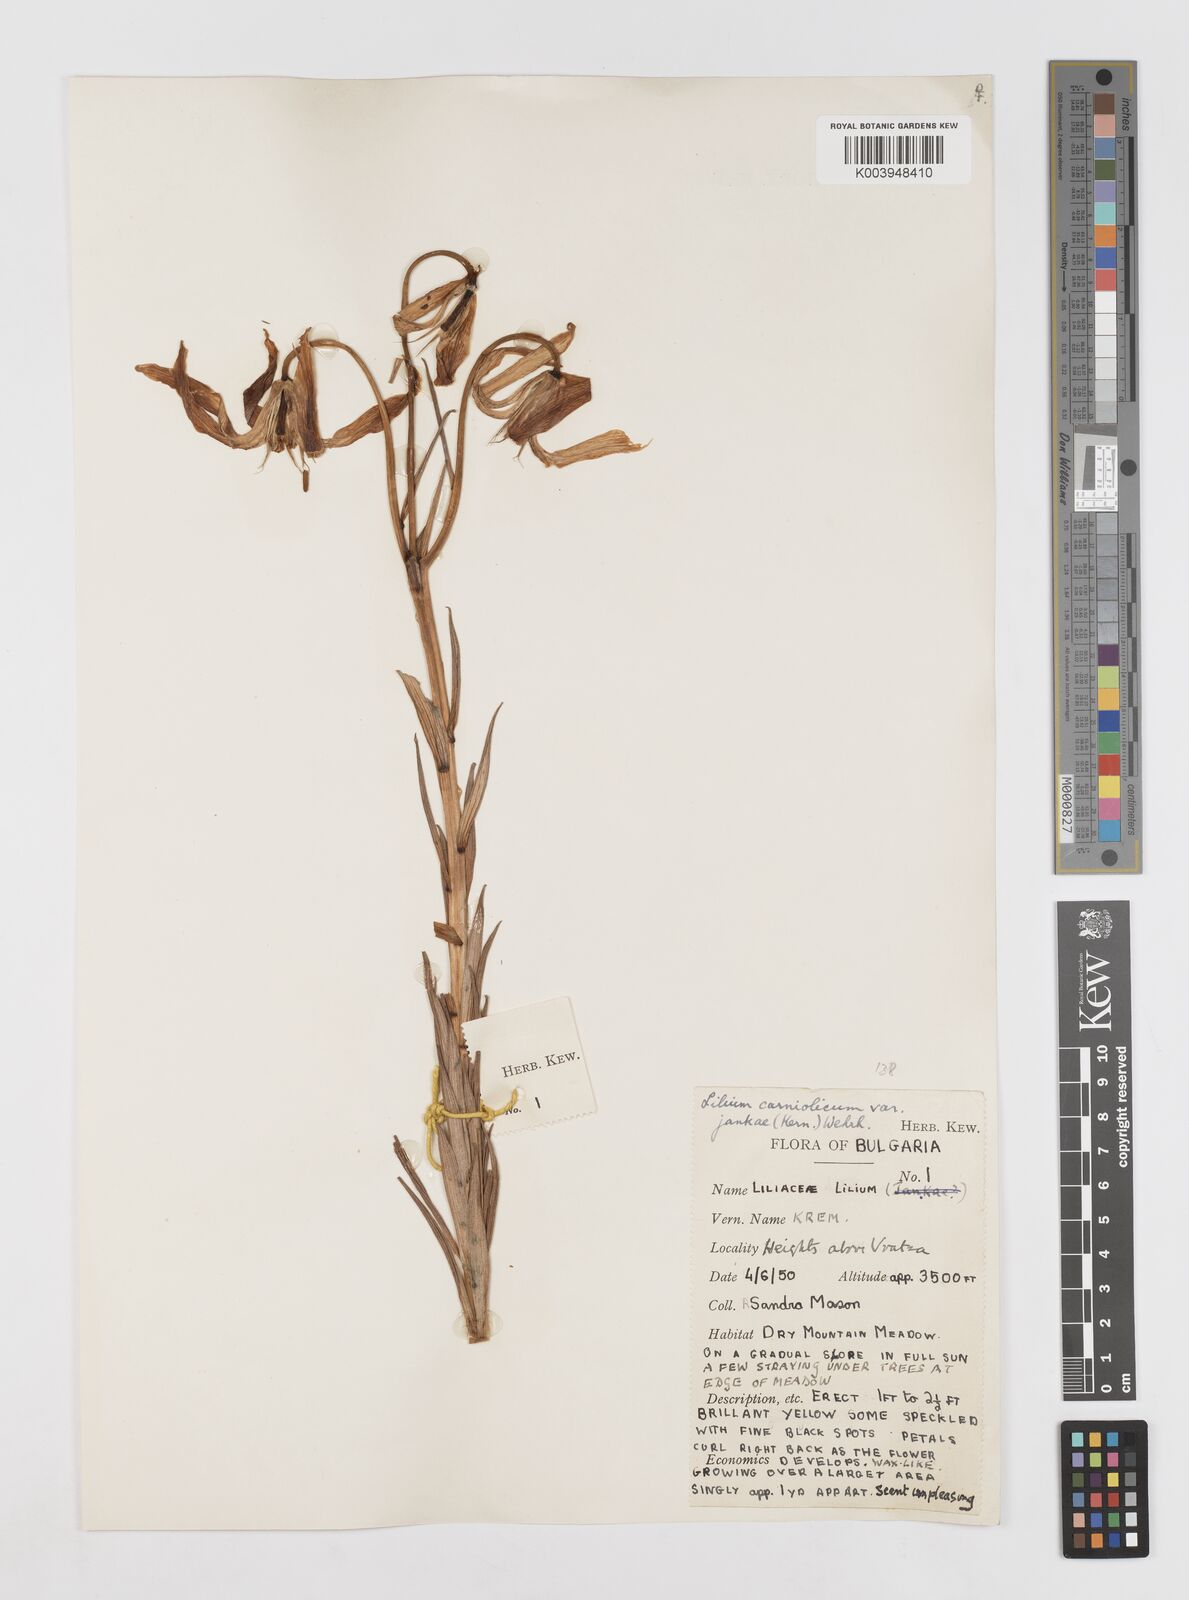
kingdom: Plantae
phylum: Tracheophyta
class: Liliopsida
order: Liliales
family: Liliaceae
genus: Lilium
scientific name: Lilium jankae
